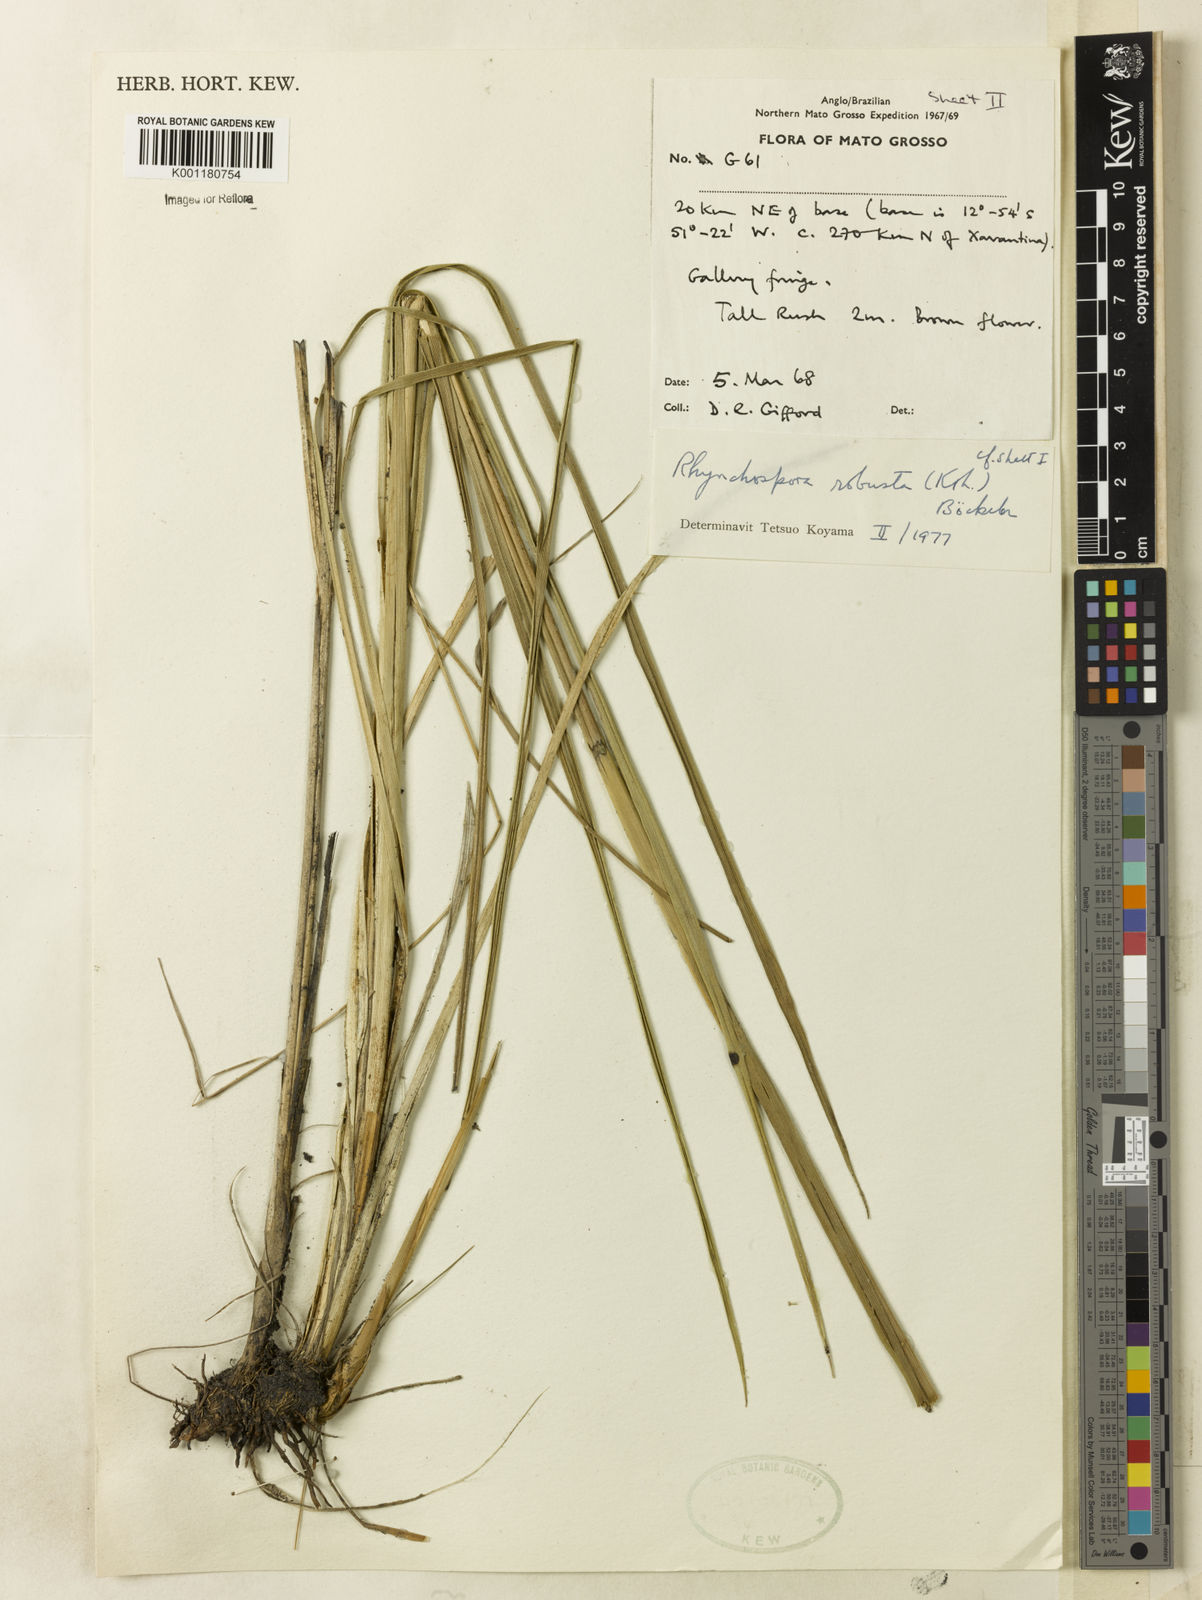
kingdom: Plantae
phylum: Tracheophyta
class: Liliopsida
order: Poales
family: Cyperaceae
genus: Rhynchospora
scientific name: Rhynchospora robusta
